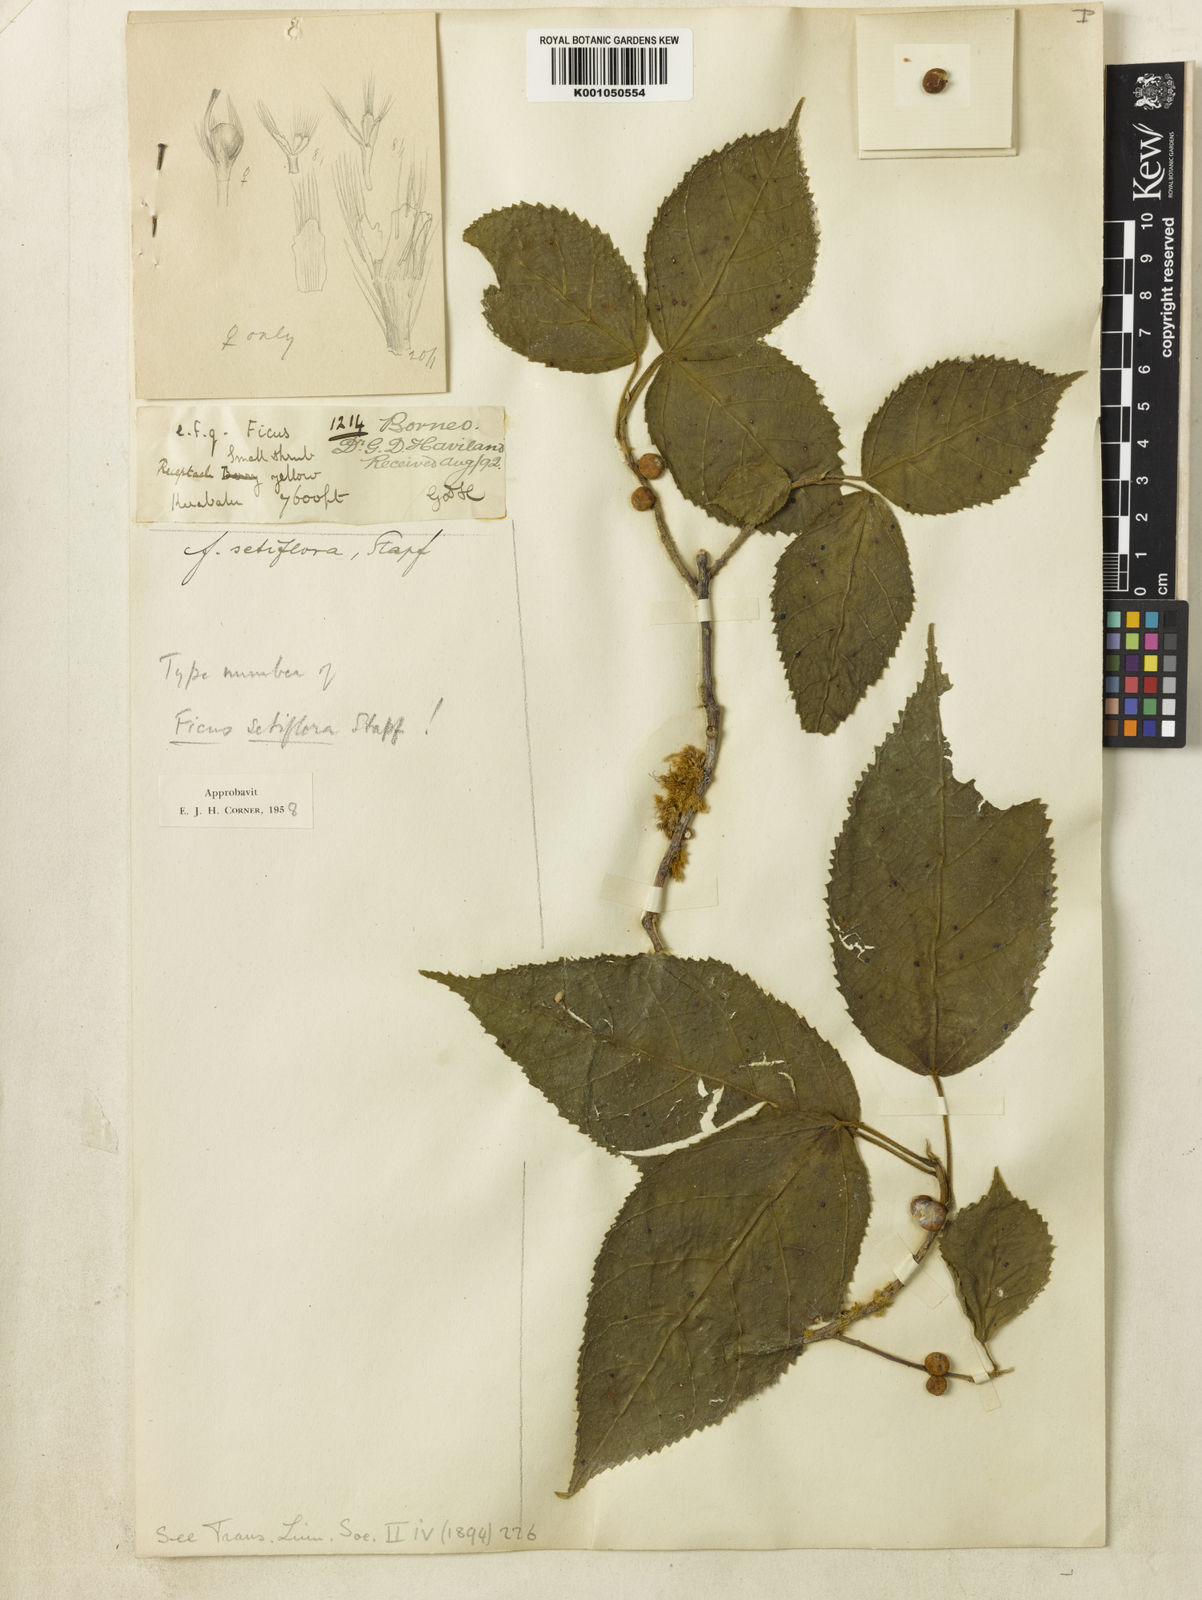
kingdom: Plantae
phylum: Tracheophyta
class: Magnoliopsida
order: Rosales
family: Moraceae
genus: Ficus
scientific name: Ficus setiflora
